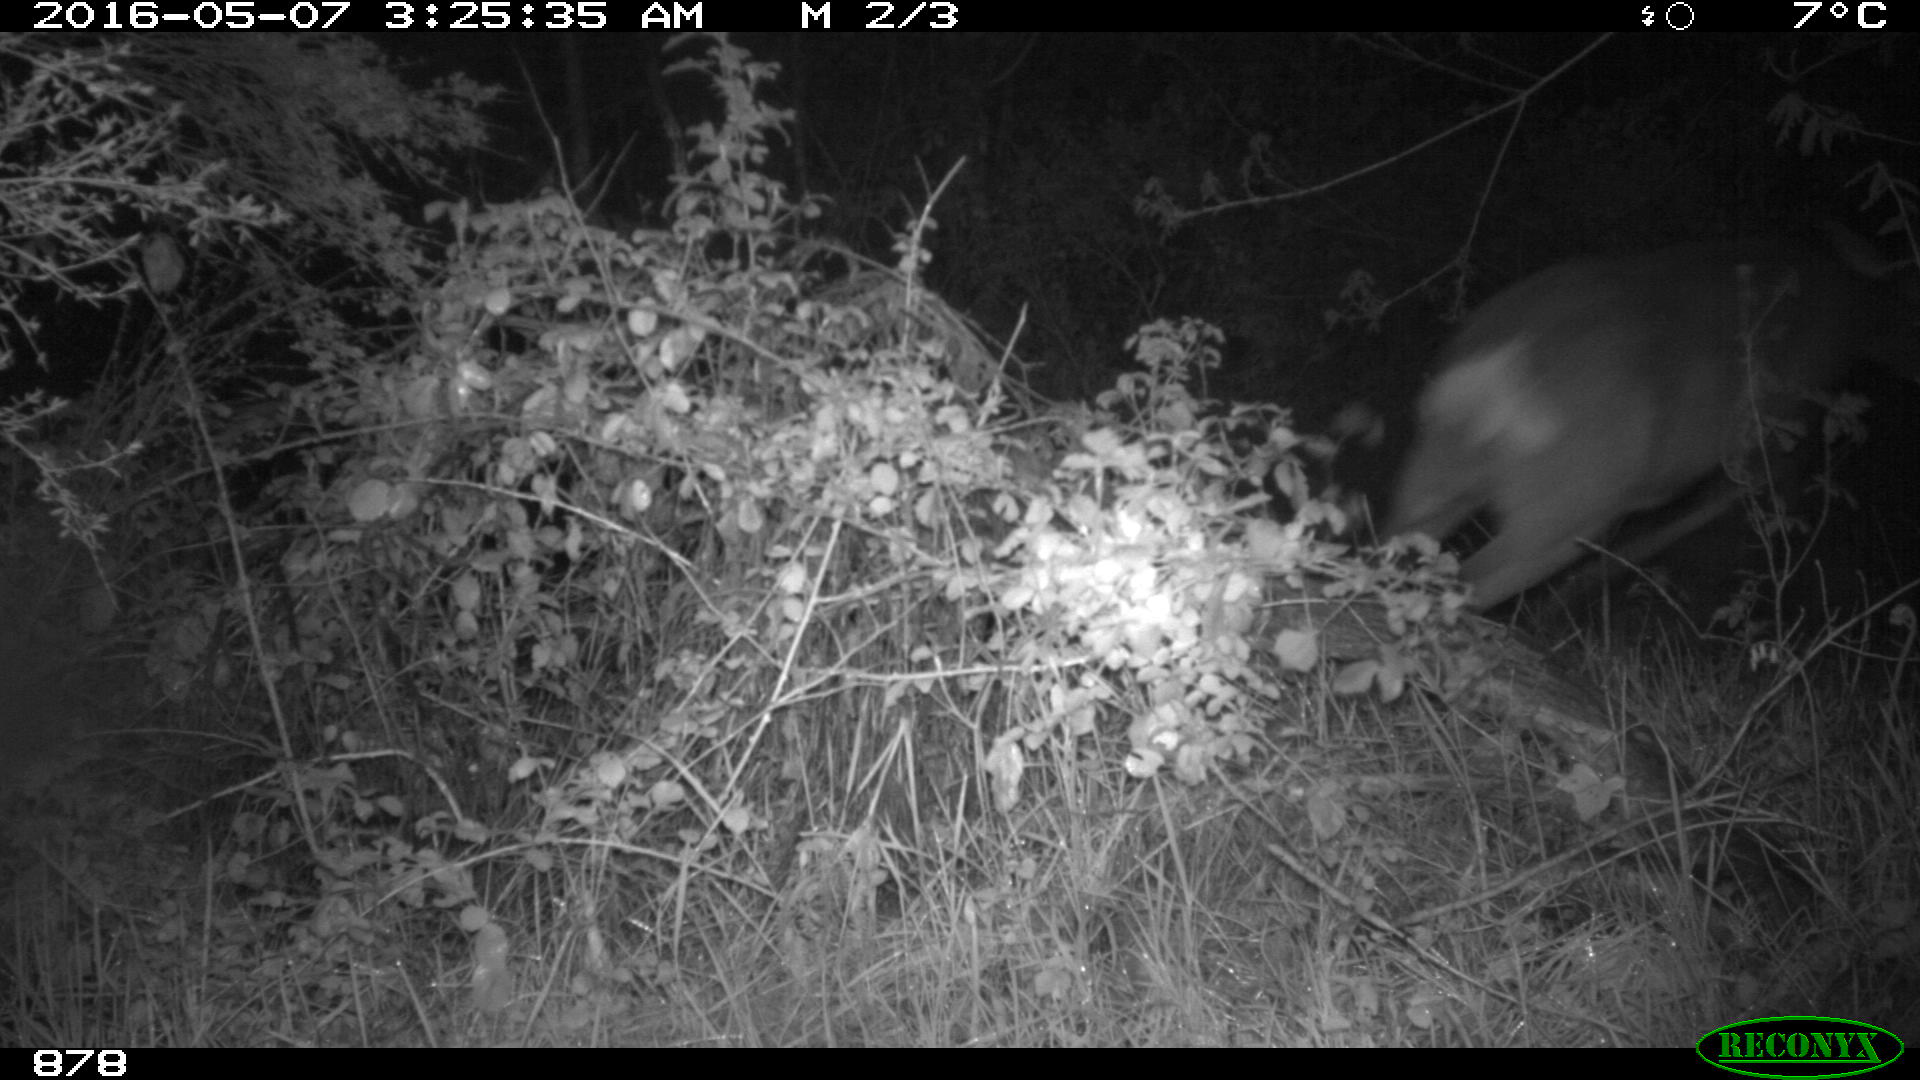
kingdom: Animalia
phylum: Chordata
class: Mammalia
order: Artiodactyla
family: Cervidae
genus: Capreolus
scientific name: Capreolus capreolus
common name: Western roe deer
